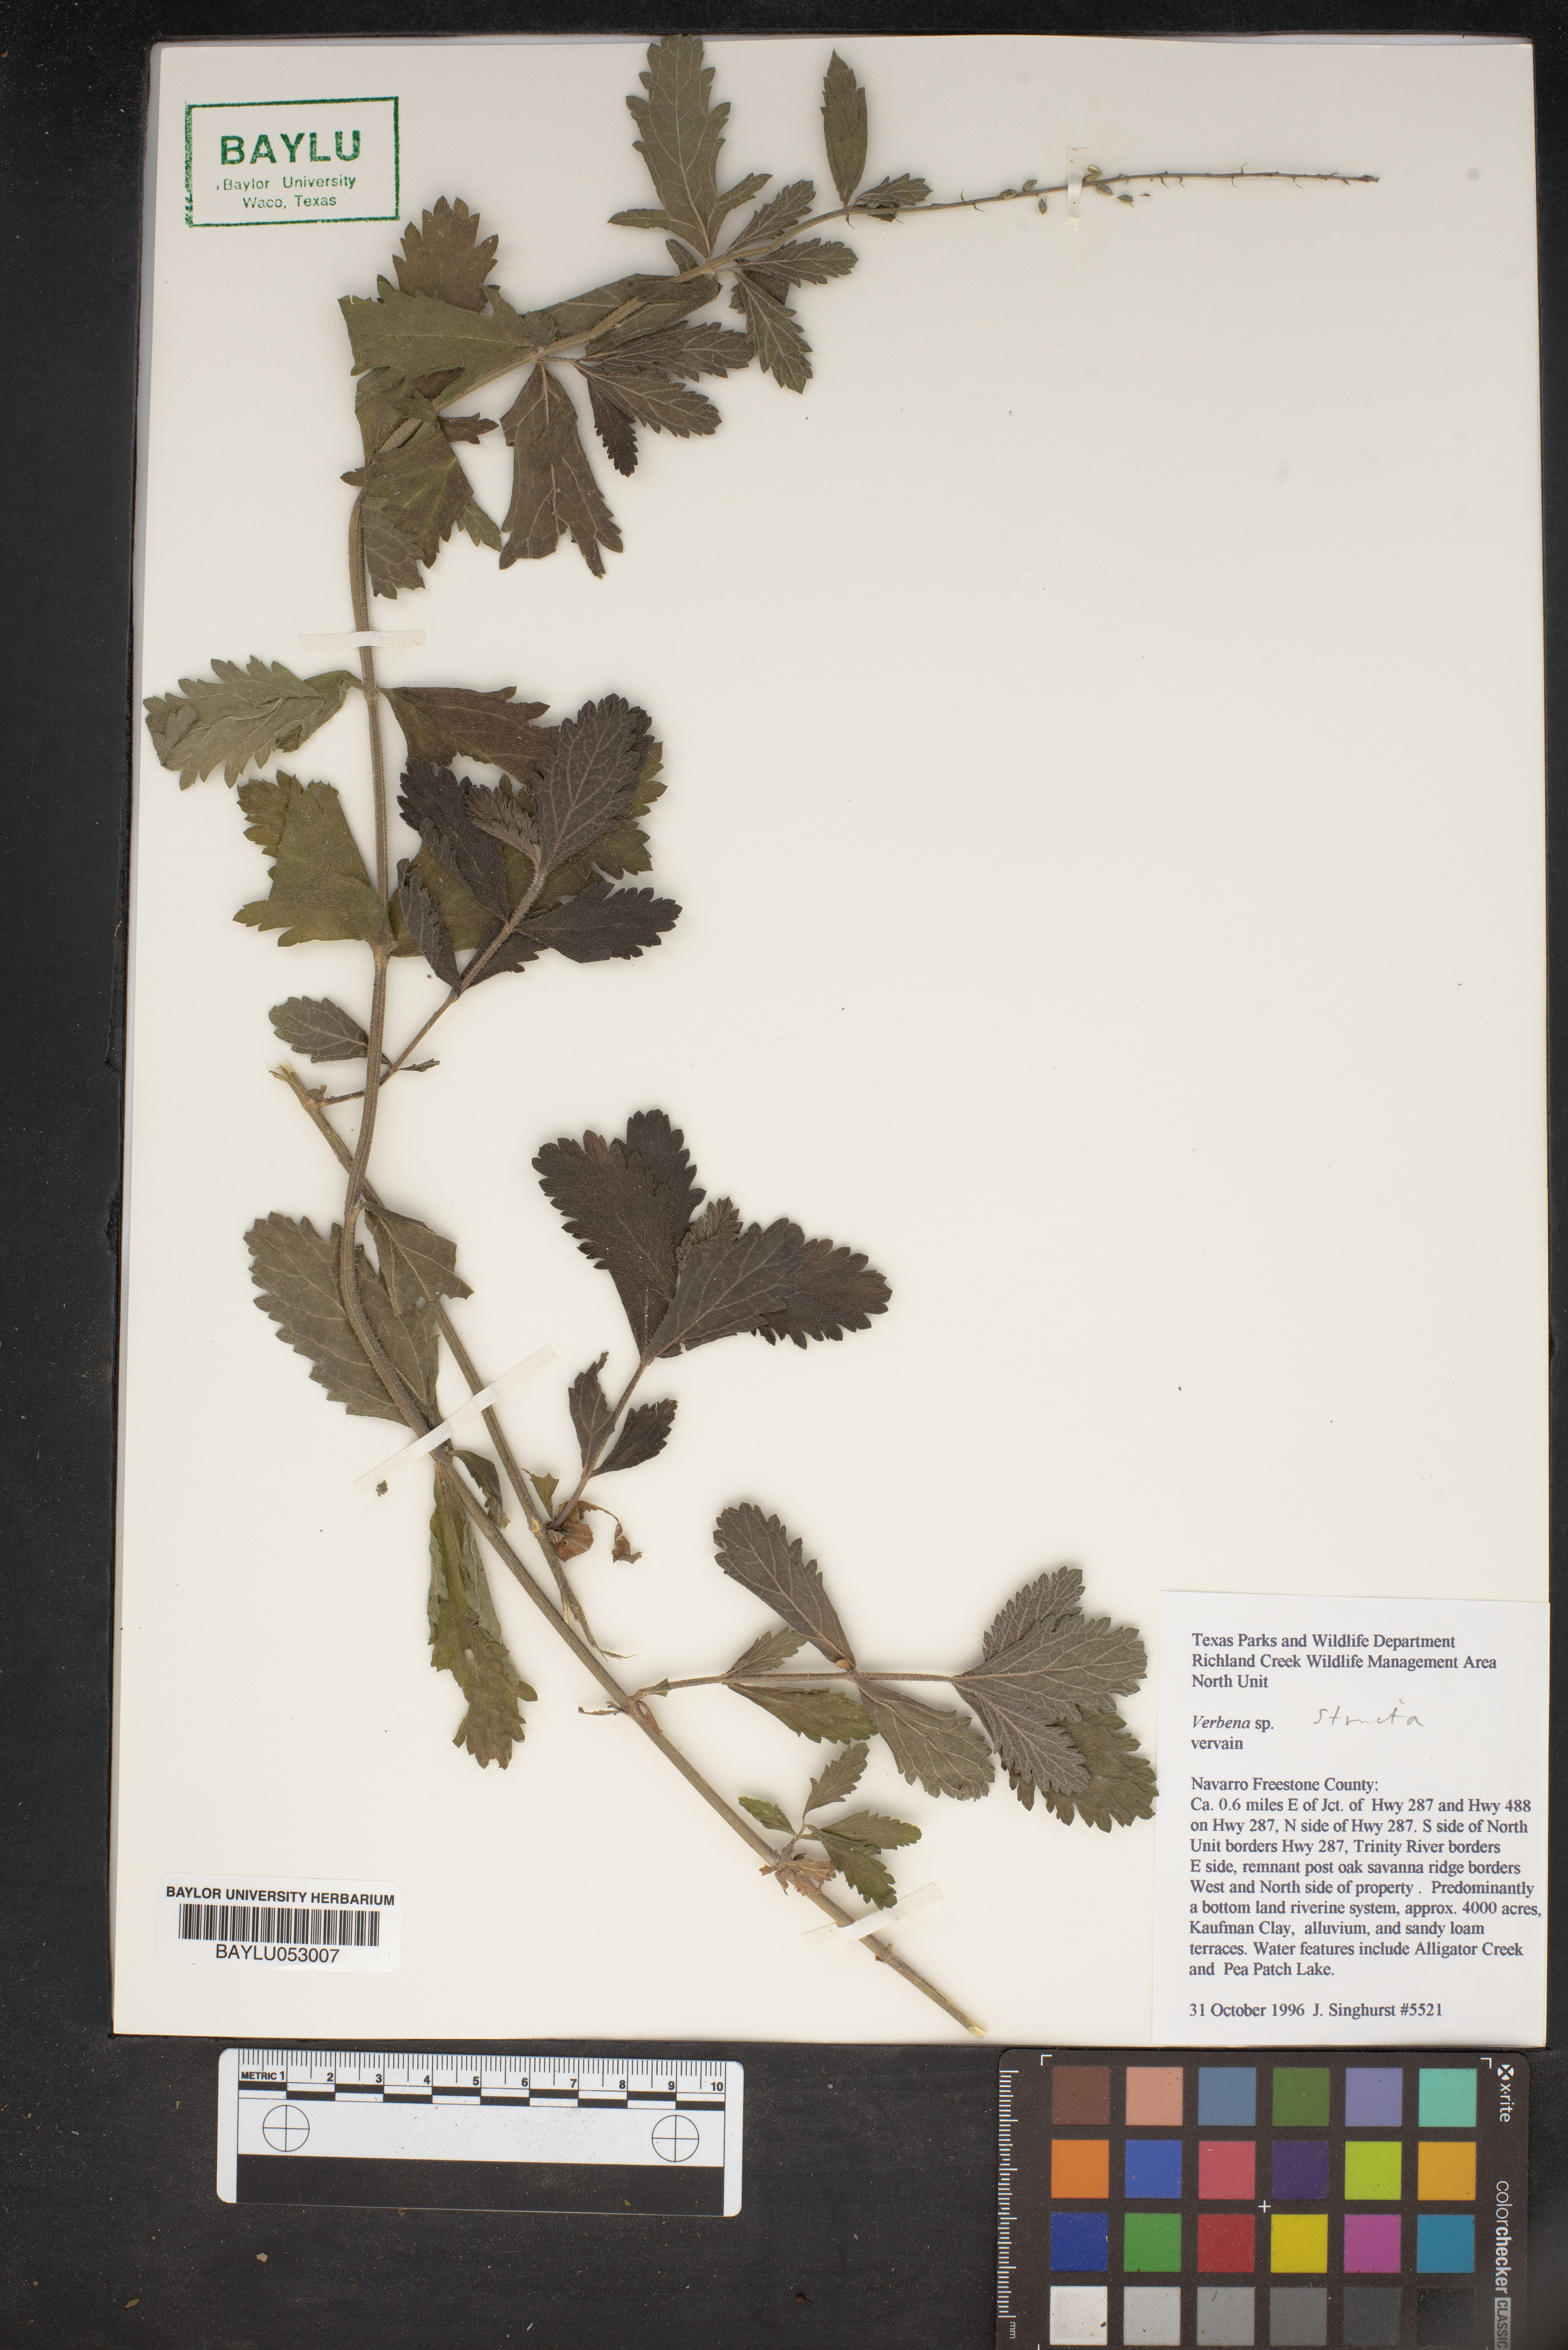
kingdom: Plantae
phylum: Tracheophyta
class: Magnoliopsida
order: Lamiales
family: Verbenaceae
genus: Verbena
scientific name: Verbena
